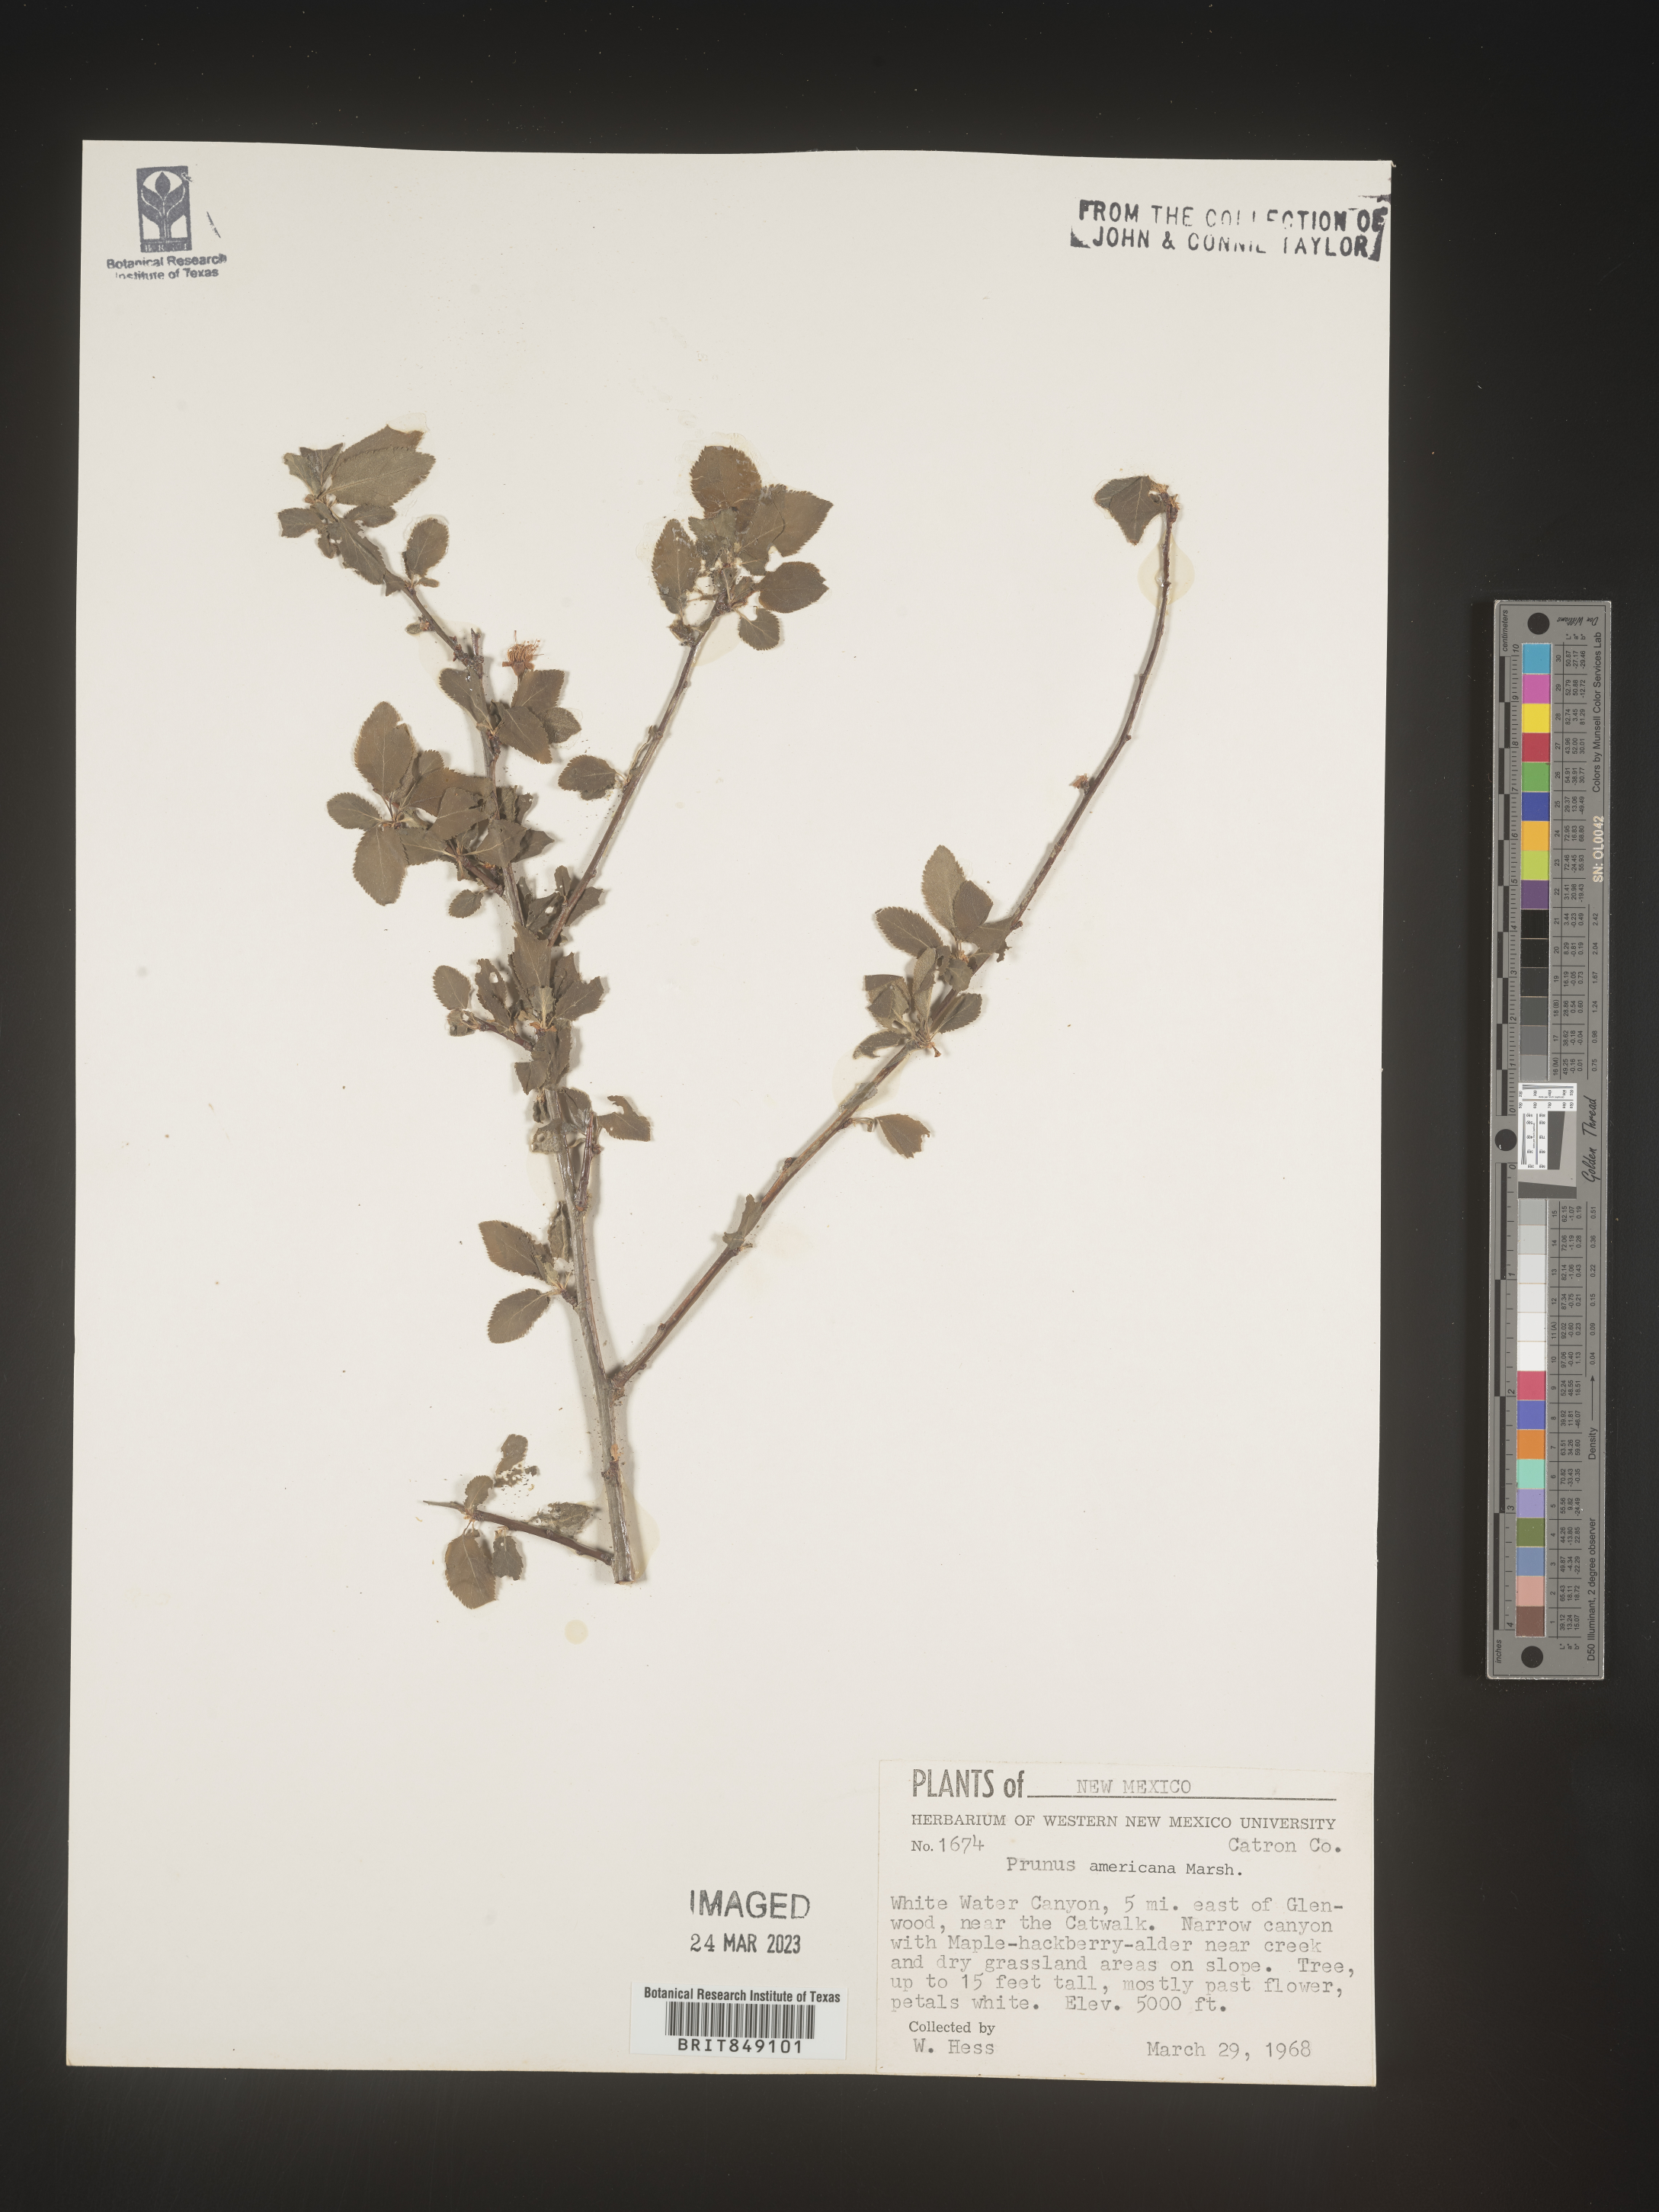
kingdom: Plantae
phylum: Tracheophyta
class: Magnoliopsida
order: Rosales
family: Rosaceae
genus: Prunus
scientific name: Prunus americana
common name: American plum
